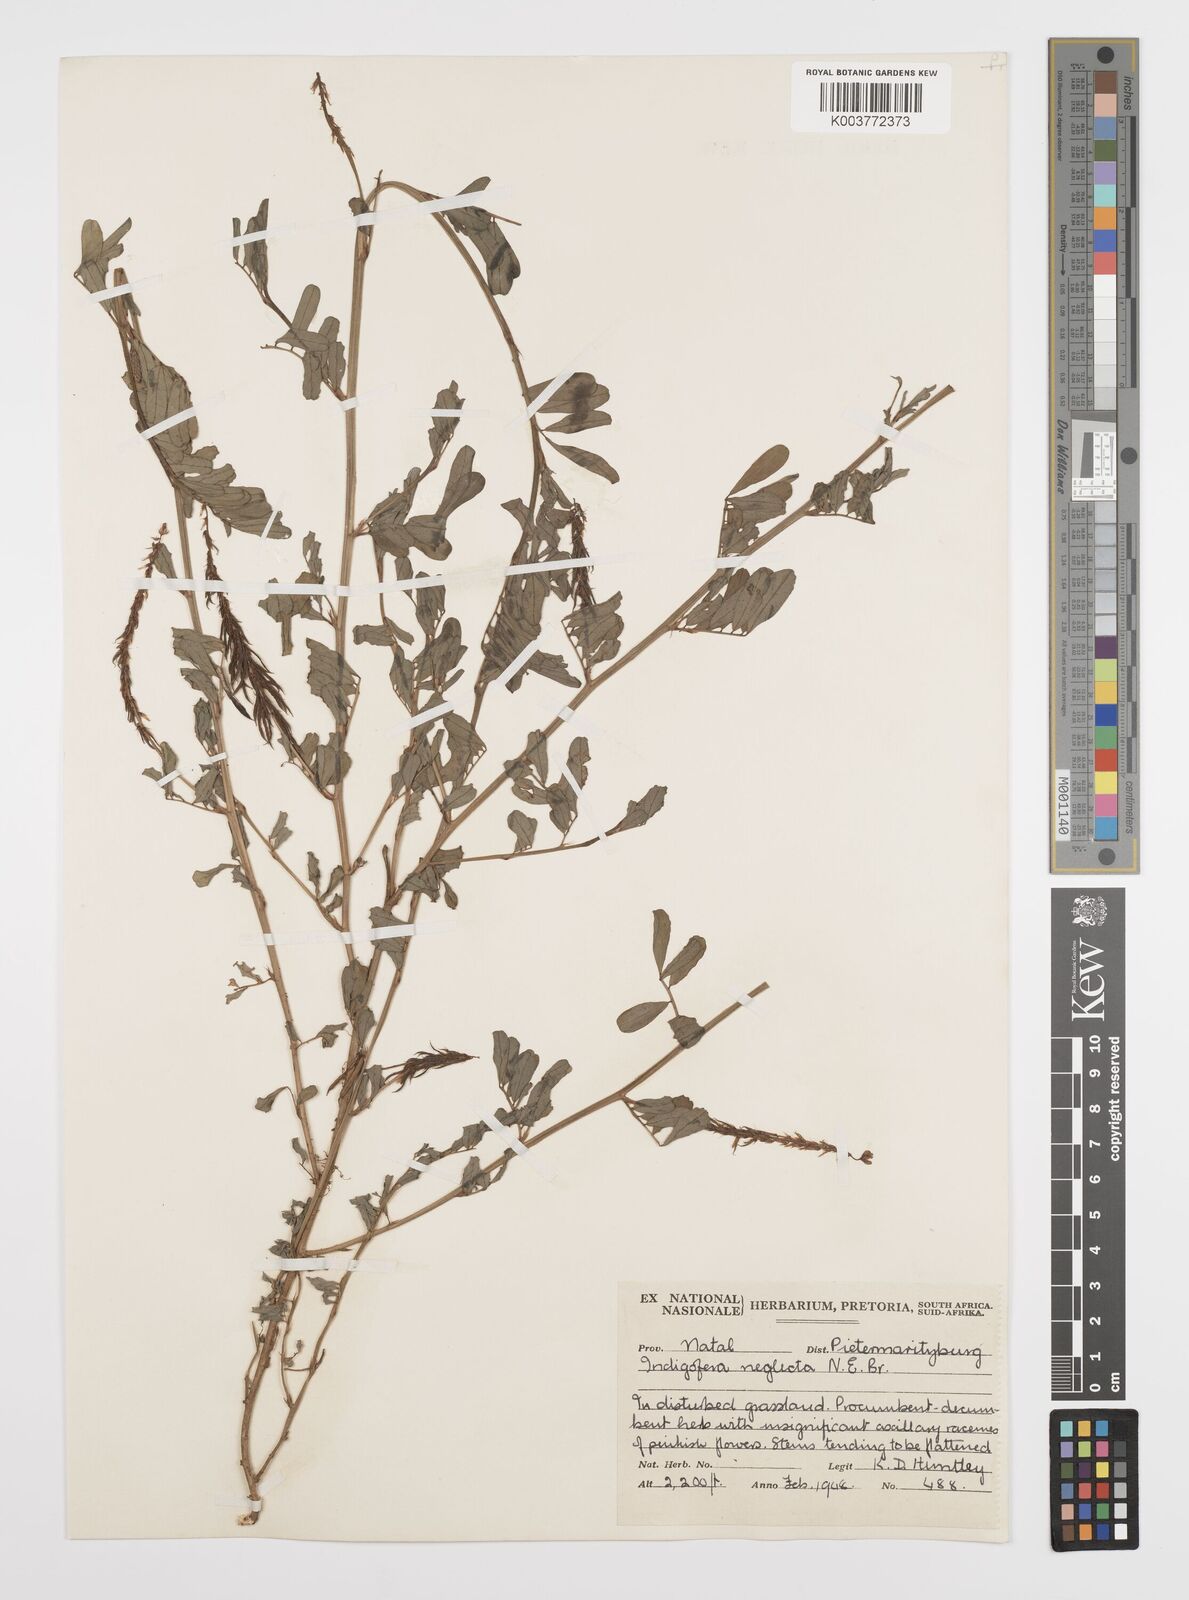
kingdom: Plantae
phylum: Tracheophyta
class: Magnoliopsida
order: Fabales
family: Fabaceae
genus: Indigofera
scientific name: Indigofera hendecaphylla
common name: Trailing indigo
